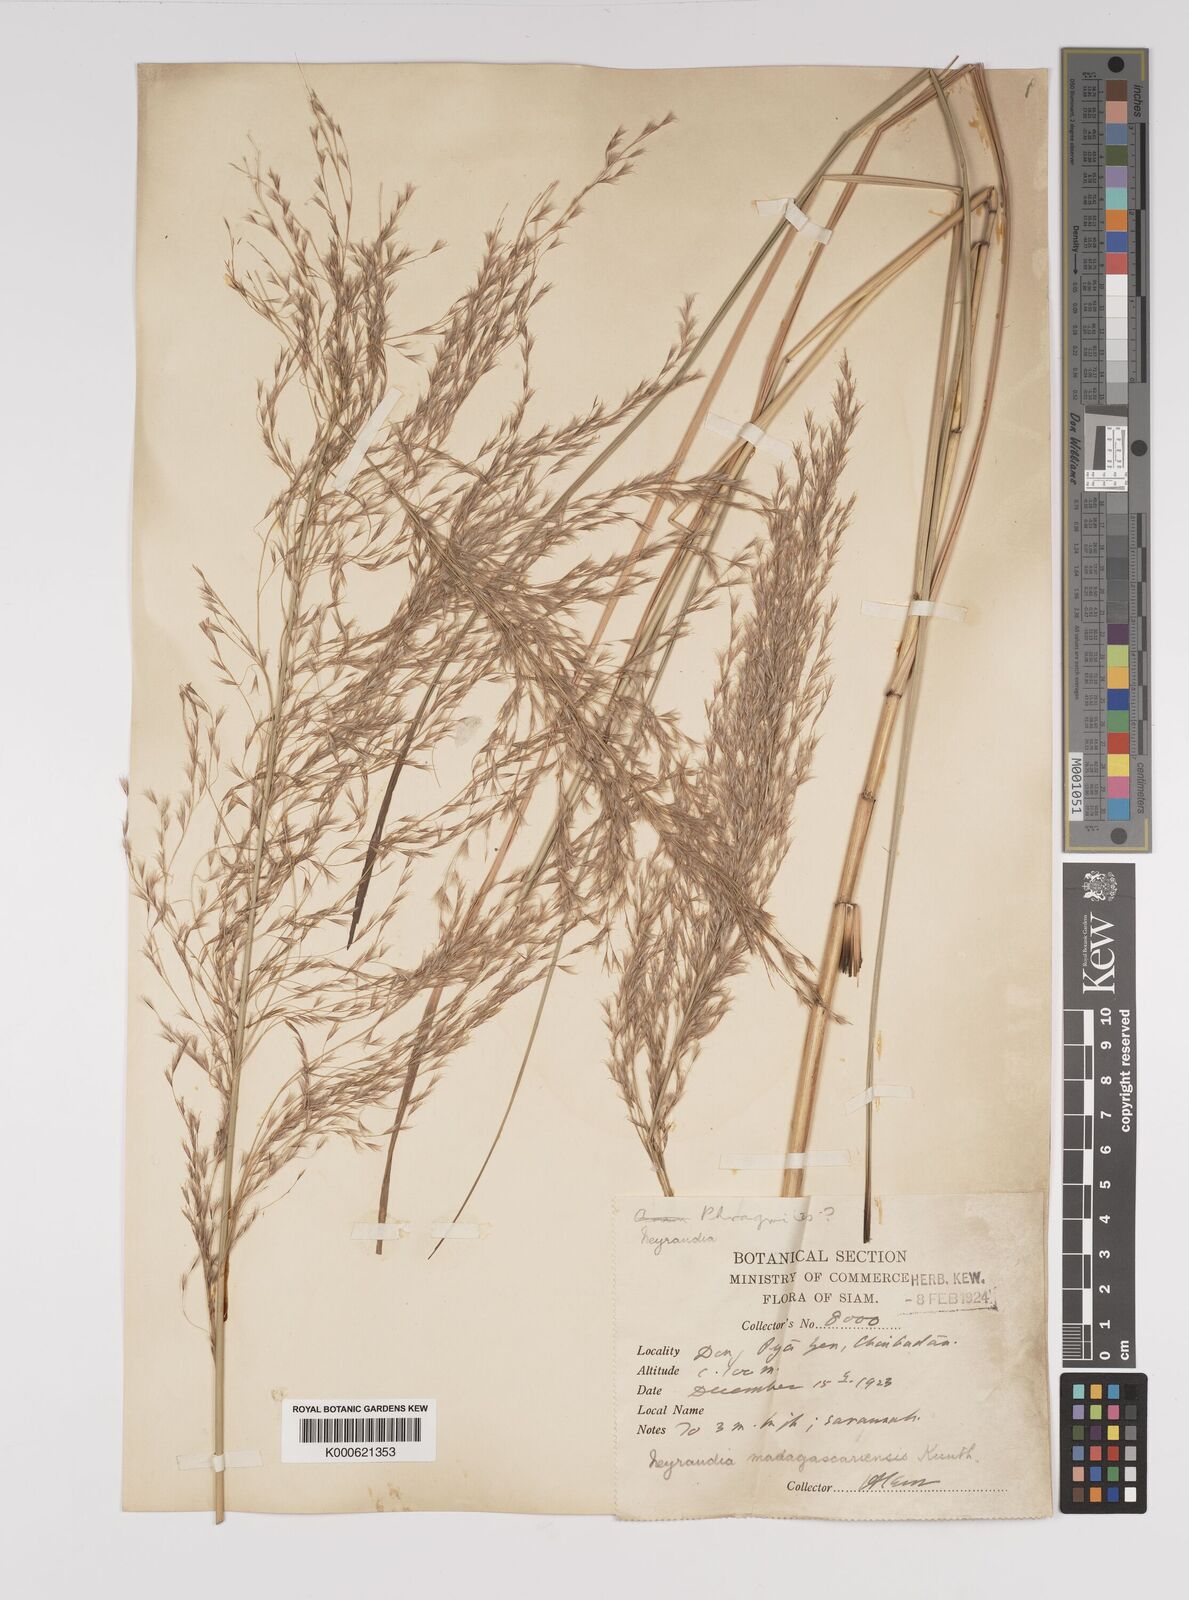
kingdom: Plantae
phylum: Tracheophyta
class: Liliopsida
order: Poales
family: Poaceae
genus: Neyraudia
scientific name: Neyraudia reynaudiana
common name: Silkreed
